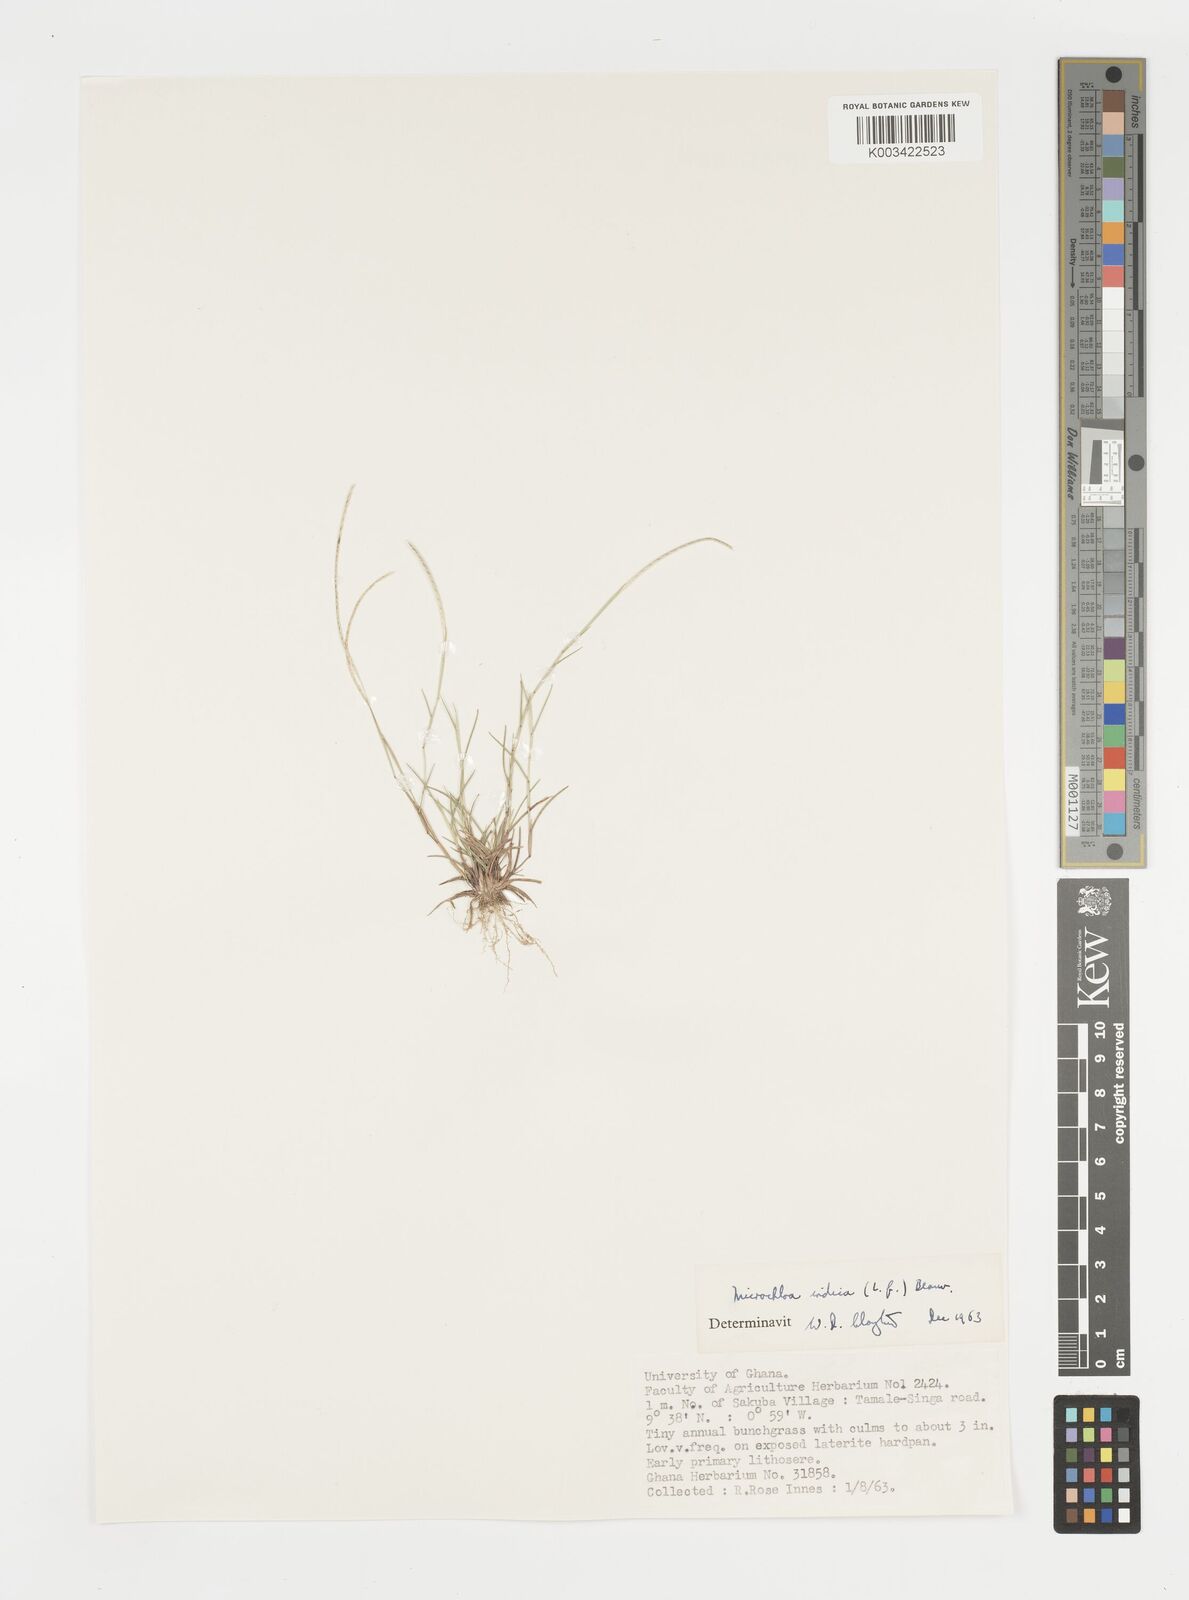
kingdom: Plantae
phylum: Tracheophyta
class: Liliopsida
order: Poales
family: Poaceae
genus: Microchloa
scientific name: Microchloa indica
